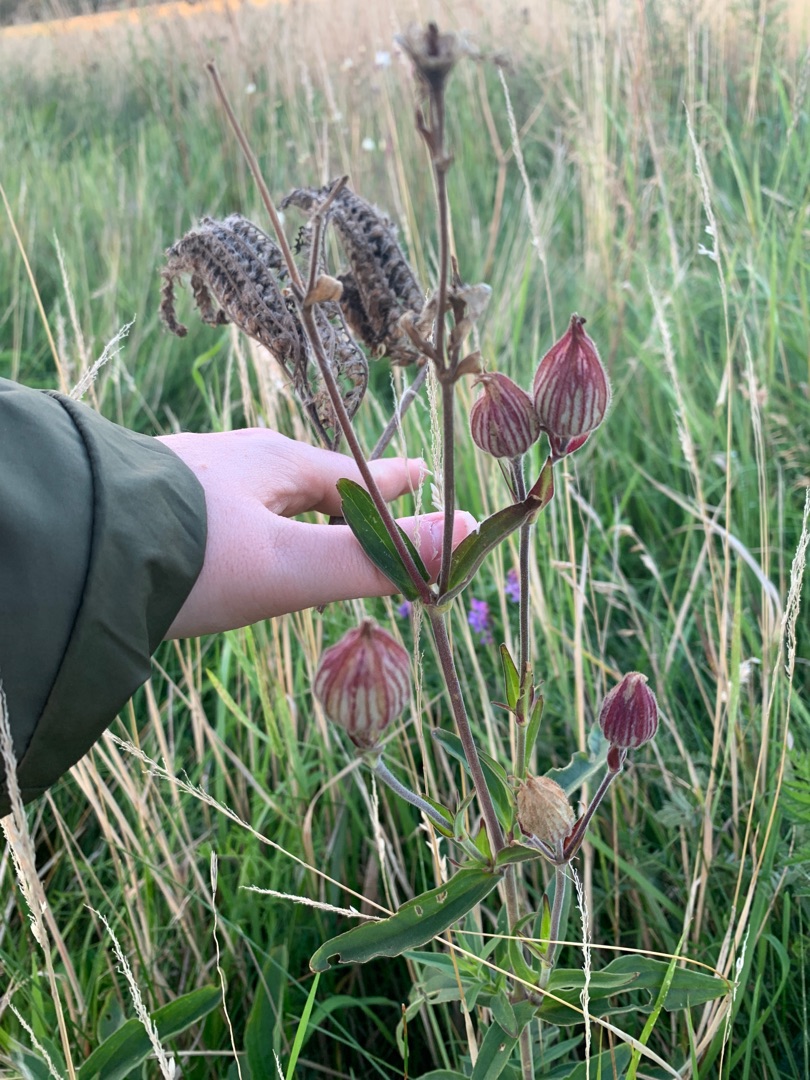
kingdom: Plantae
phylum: Tracheophyta
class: Magnoliopsida
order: Caryophyllales
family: Caryophyllaceae
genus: Silene
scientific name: Silene latifolia
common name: Aftenpragtstjerne
